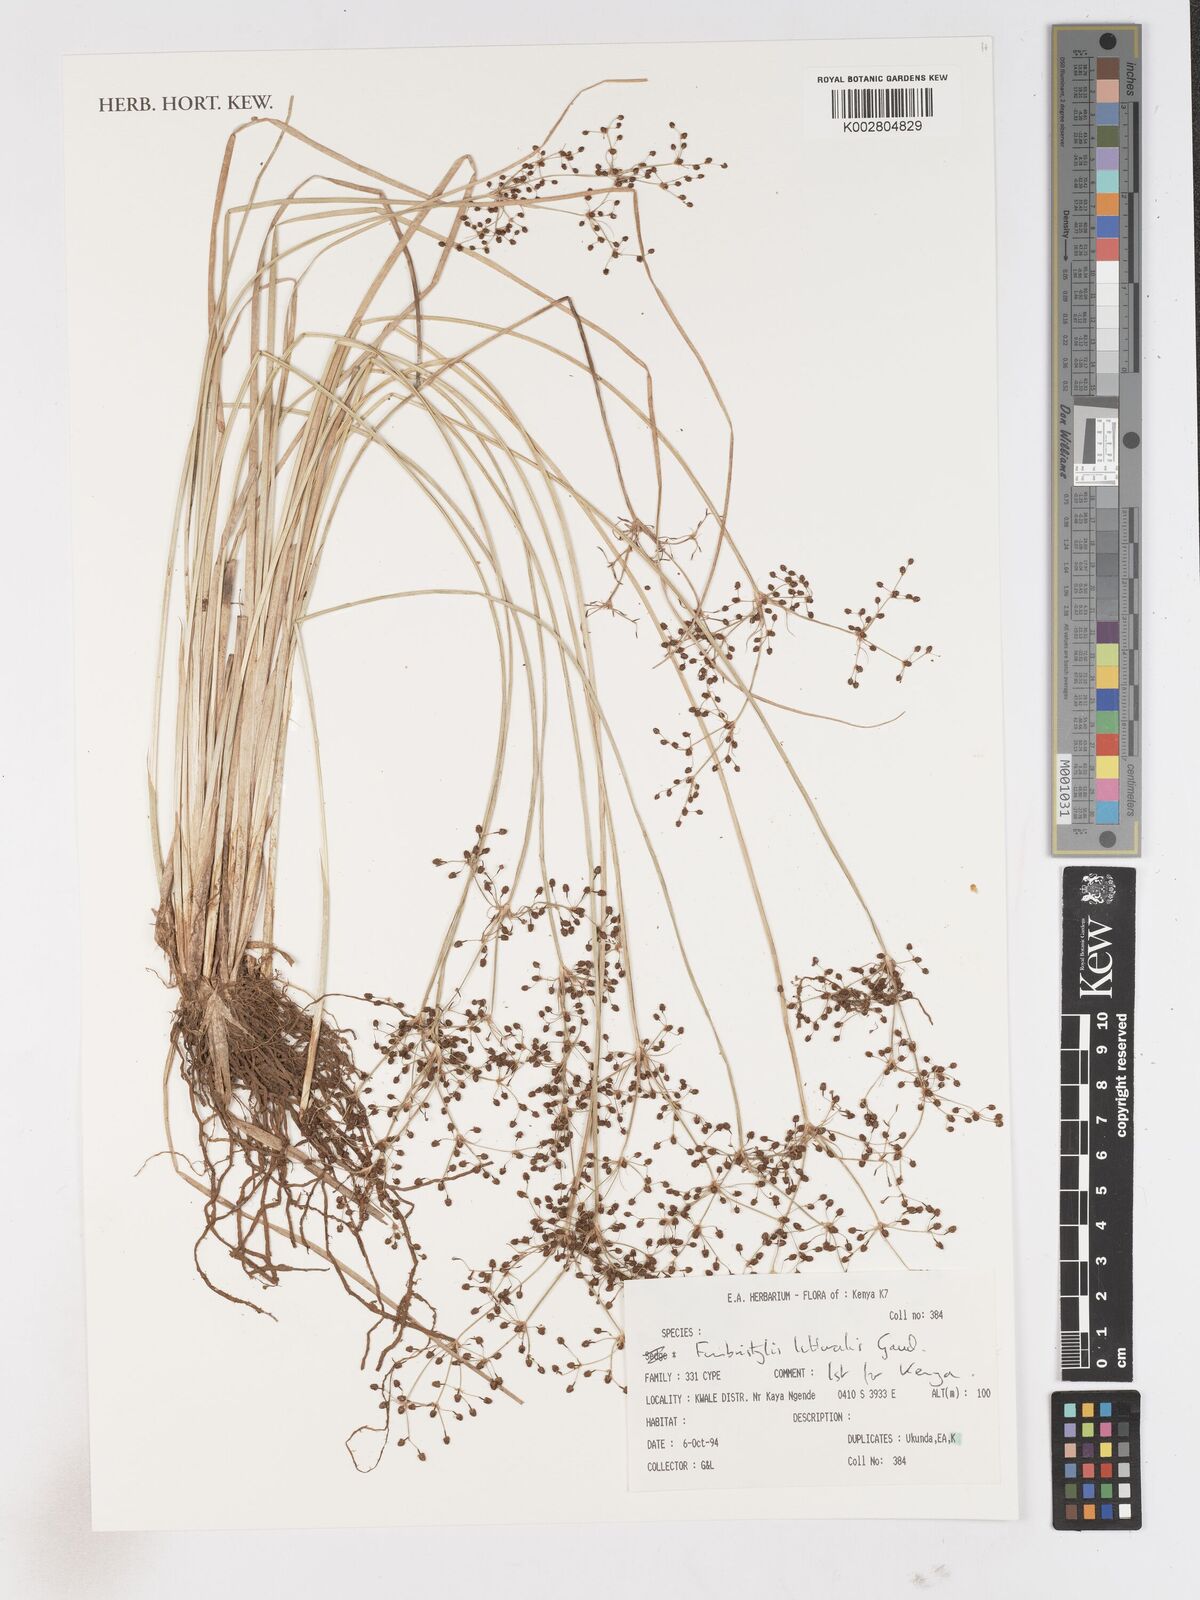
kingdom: Plantae
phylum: Tracheophyta
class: Liliopsida
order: Poales
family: Cyperaceae
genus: Fimbristylis
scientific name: Fimbristylis littoralis
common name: Fimbry
